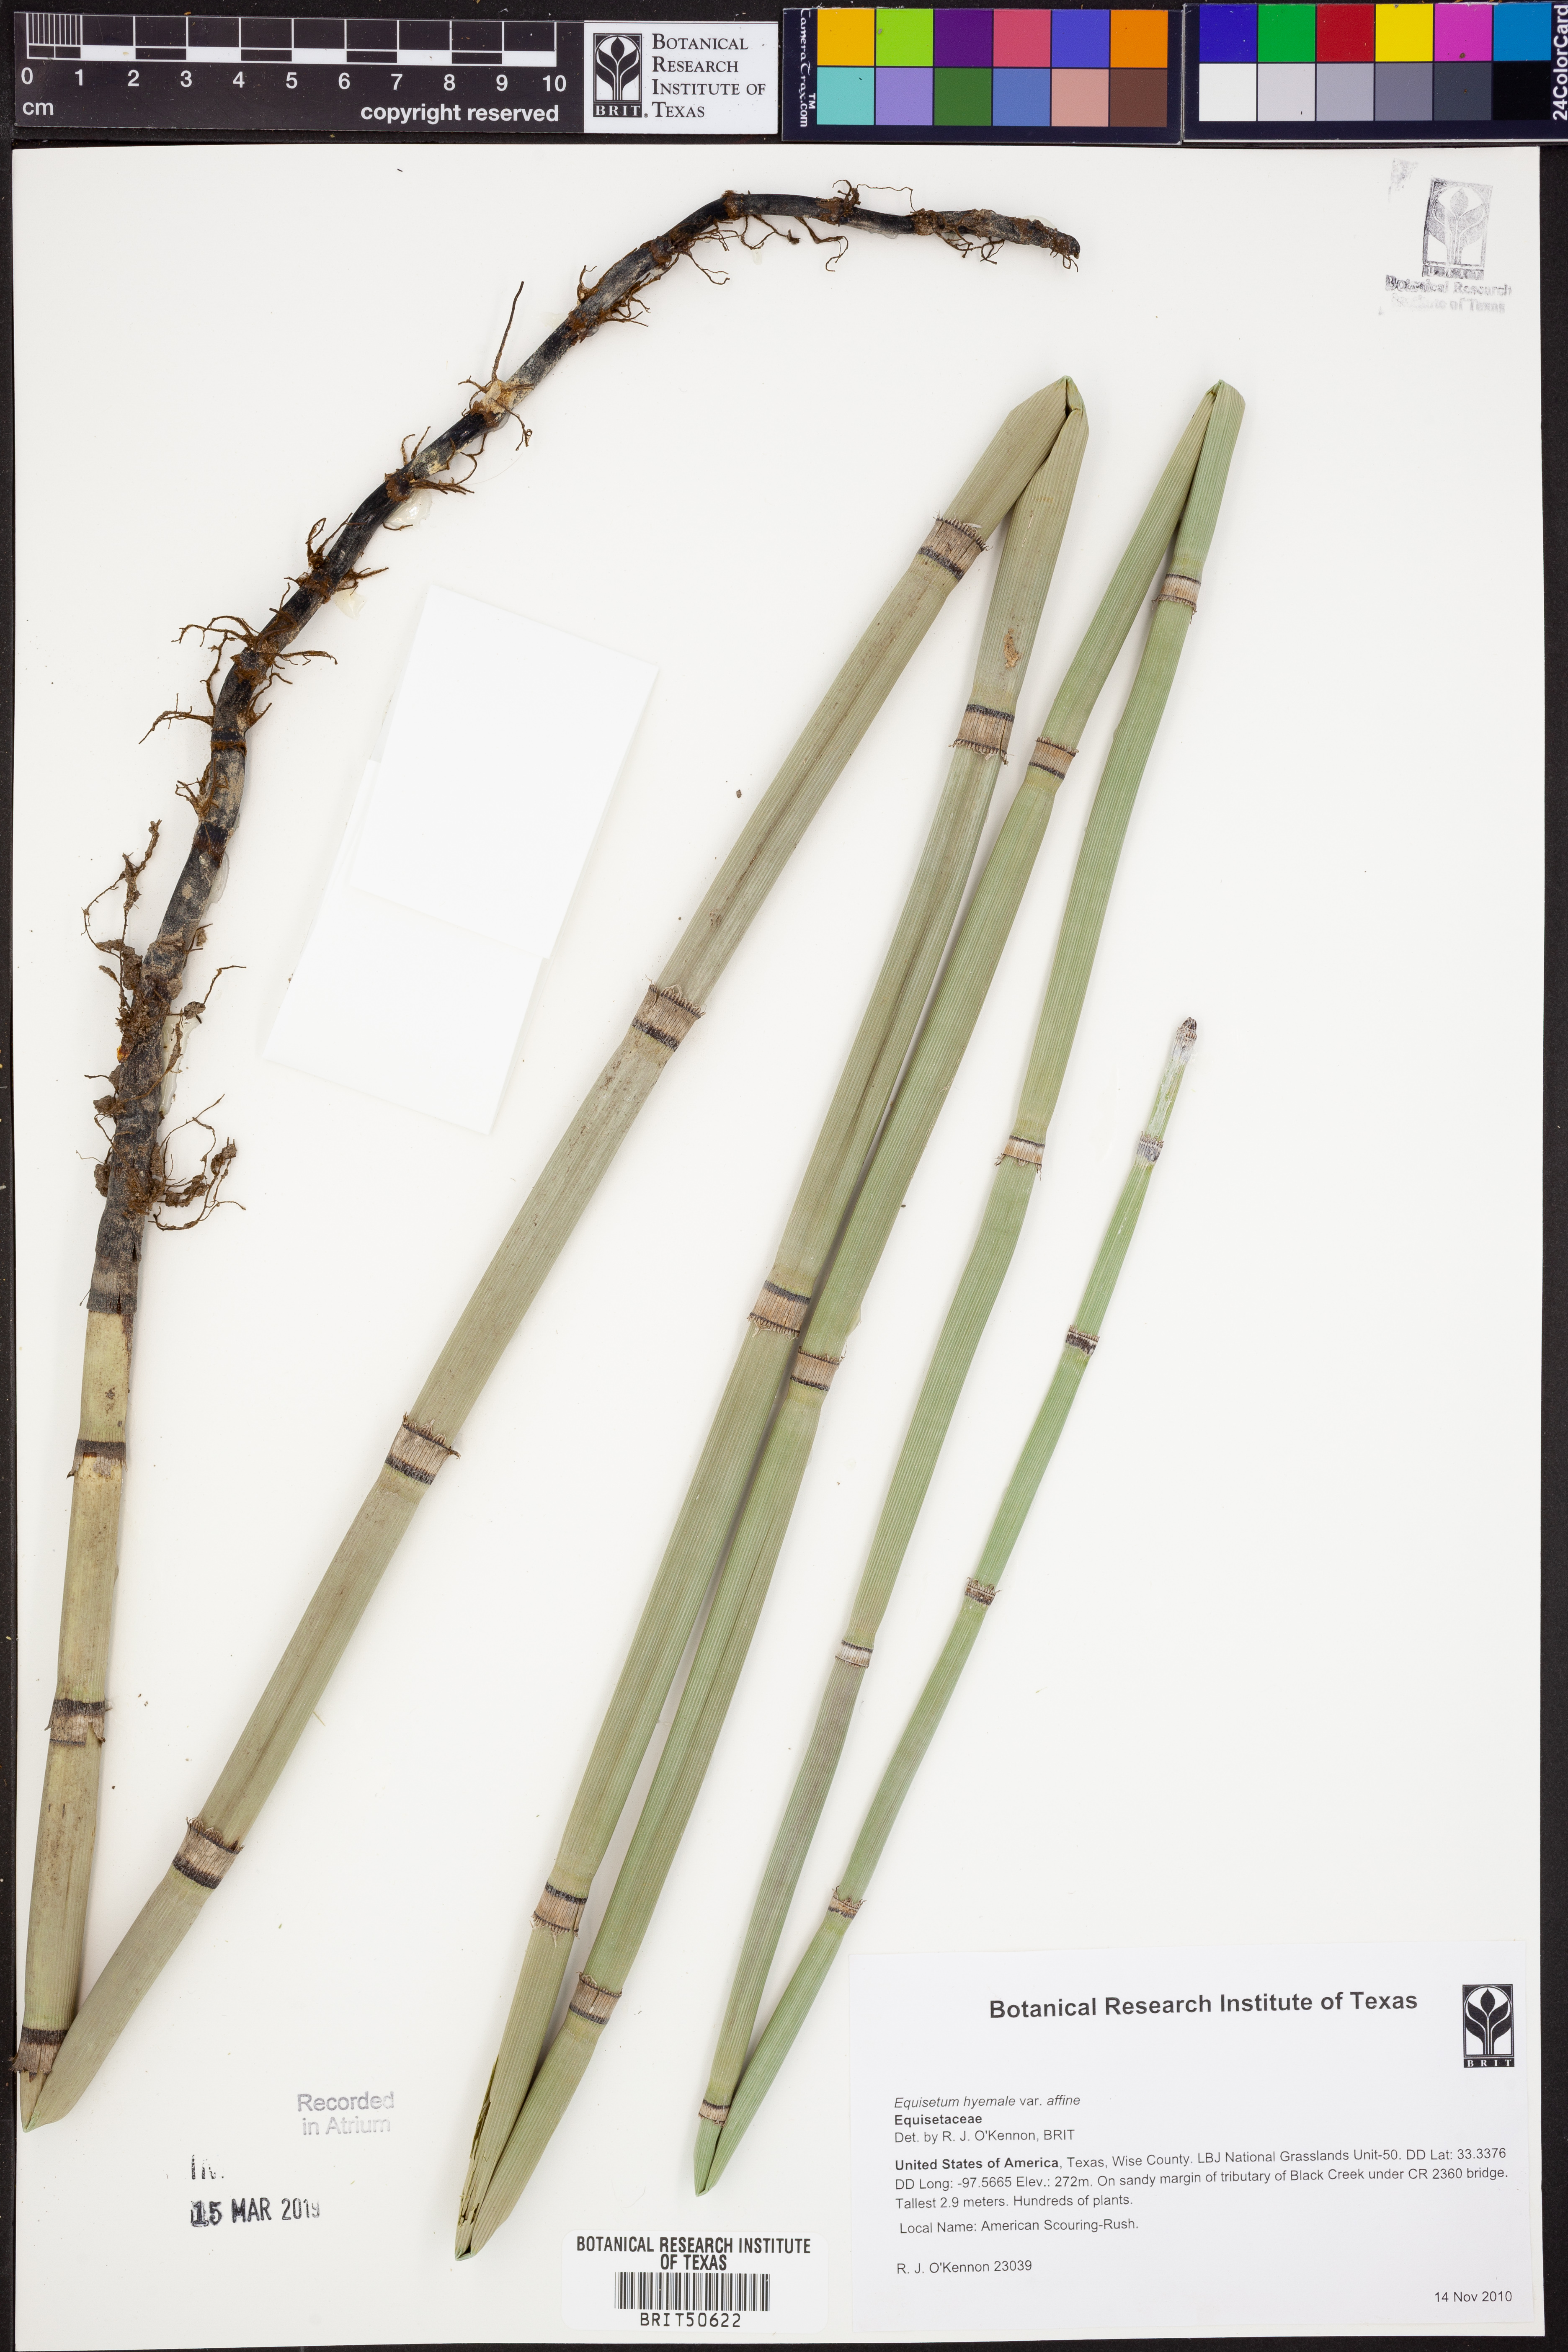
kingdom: Plantae
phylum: Tracheophyta
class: Polypodiopsida
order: Equisetales
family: Equisetaceae
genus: Equisetum
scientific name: Equisetum praealtum
